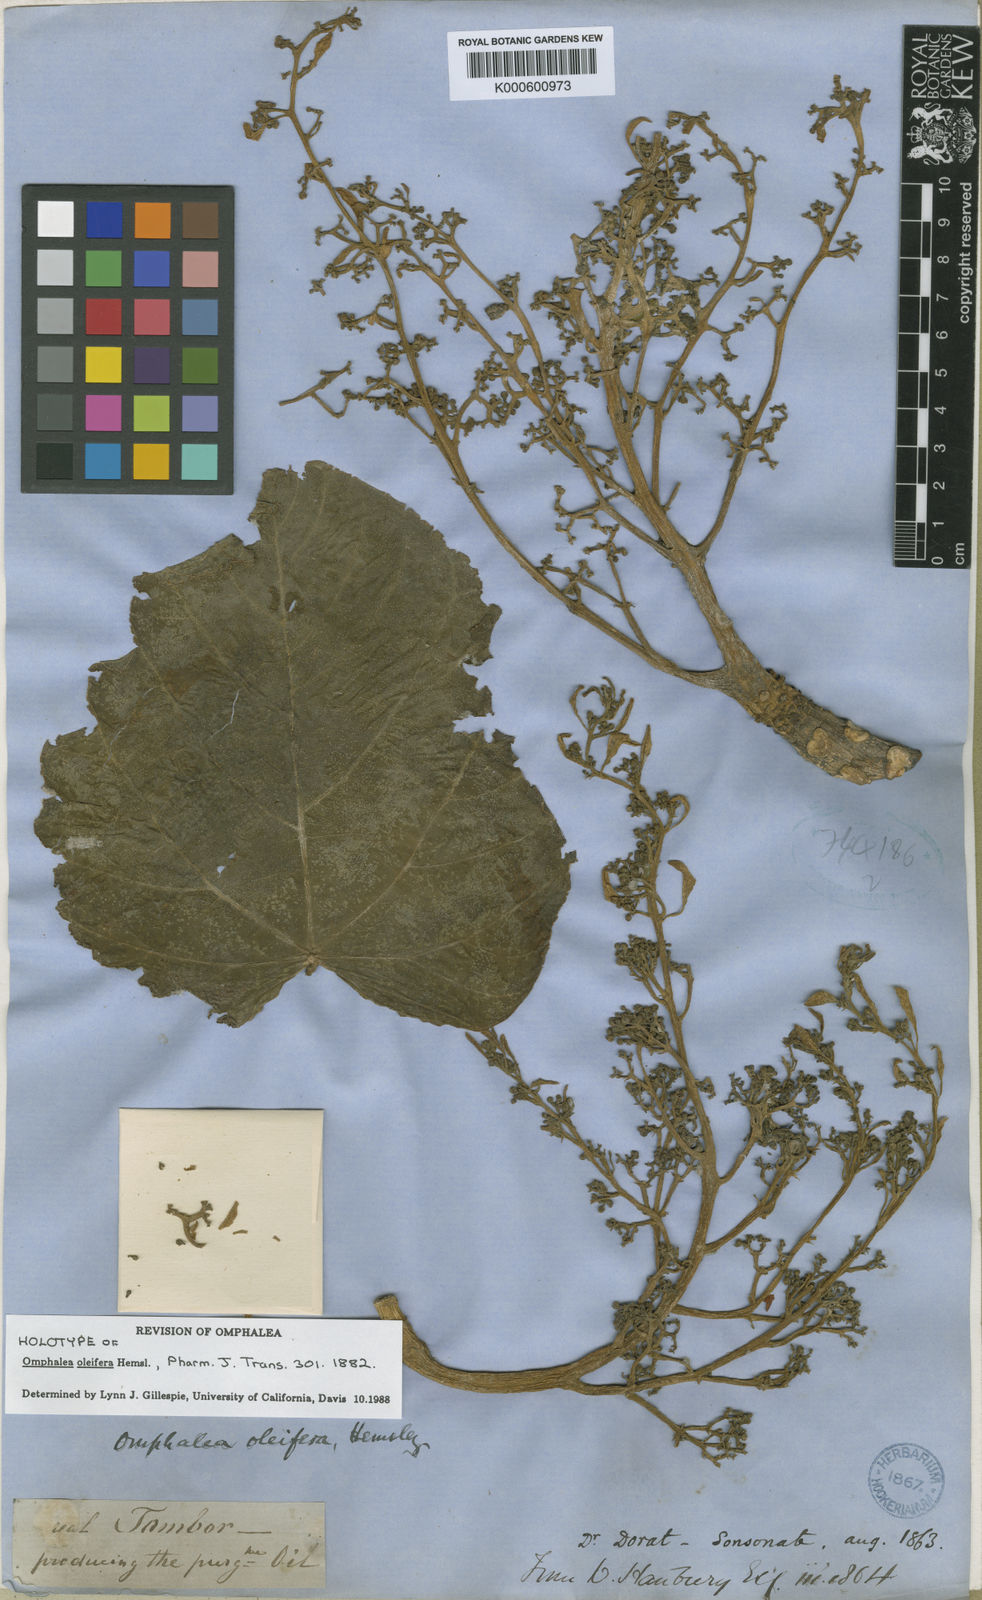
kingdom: Plantae
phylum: Tracheophyta
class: Magnoliopsida
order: Malpighiales
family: Euphorbiaceae
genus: Omphalea
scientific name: Omphalea oleifera
